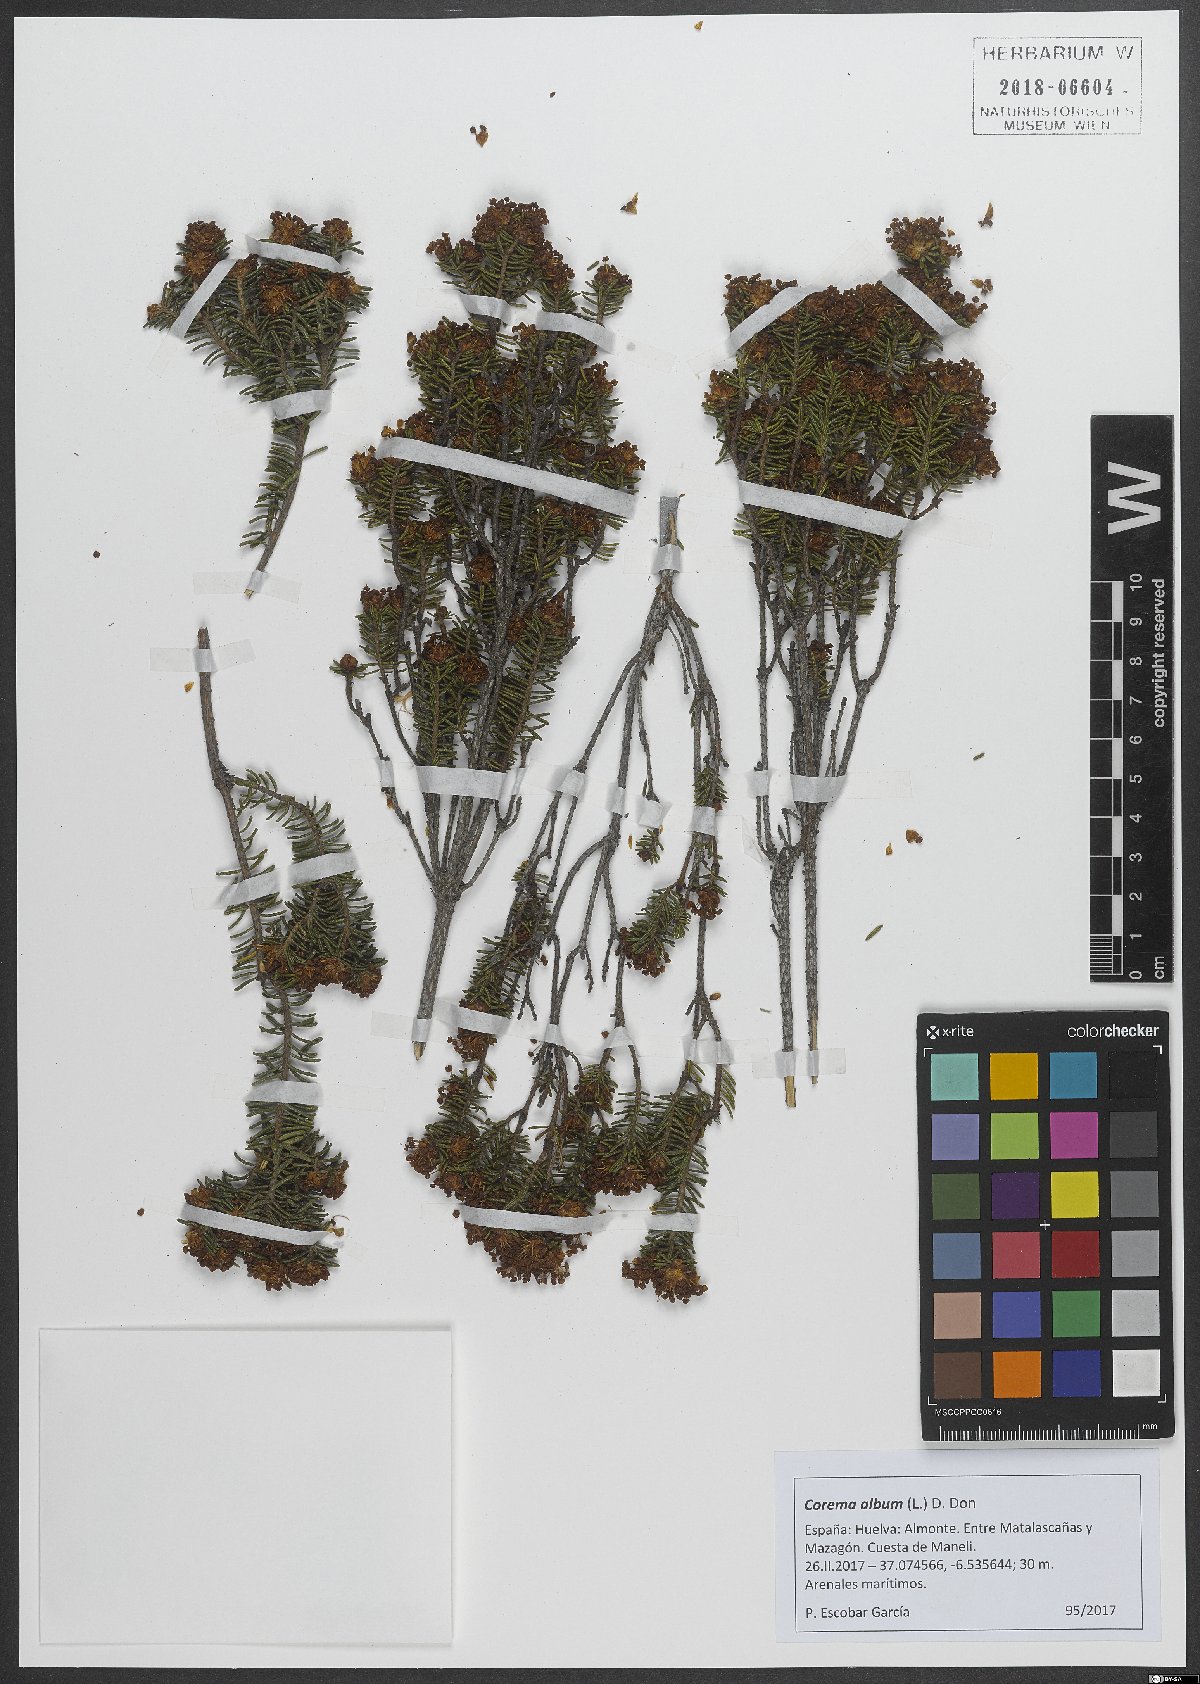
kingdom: Plantae
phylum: Tracheophyta
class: Magnoliopsida
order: Ericales
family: Ericaceae
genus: Corema
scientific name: Corema album
